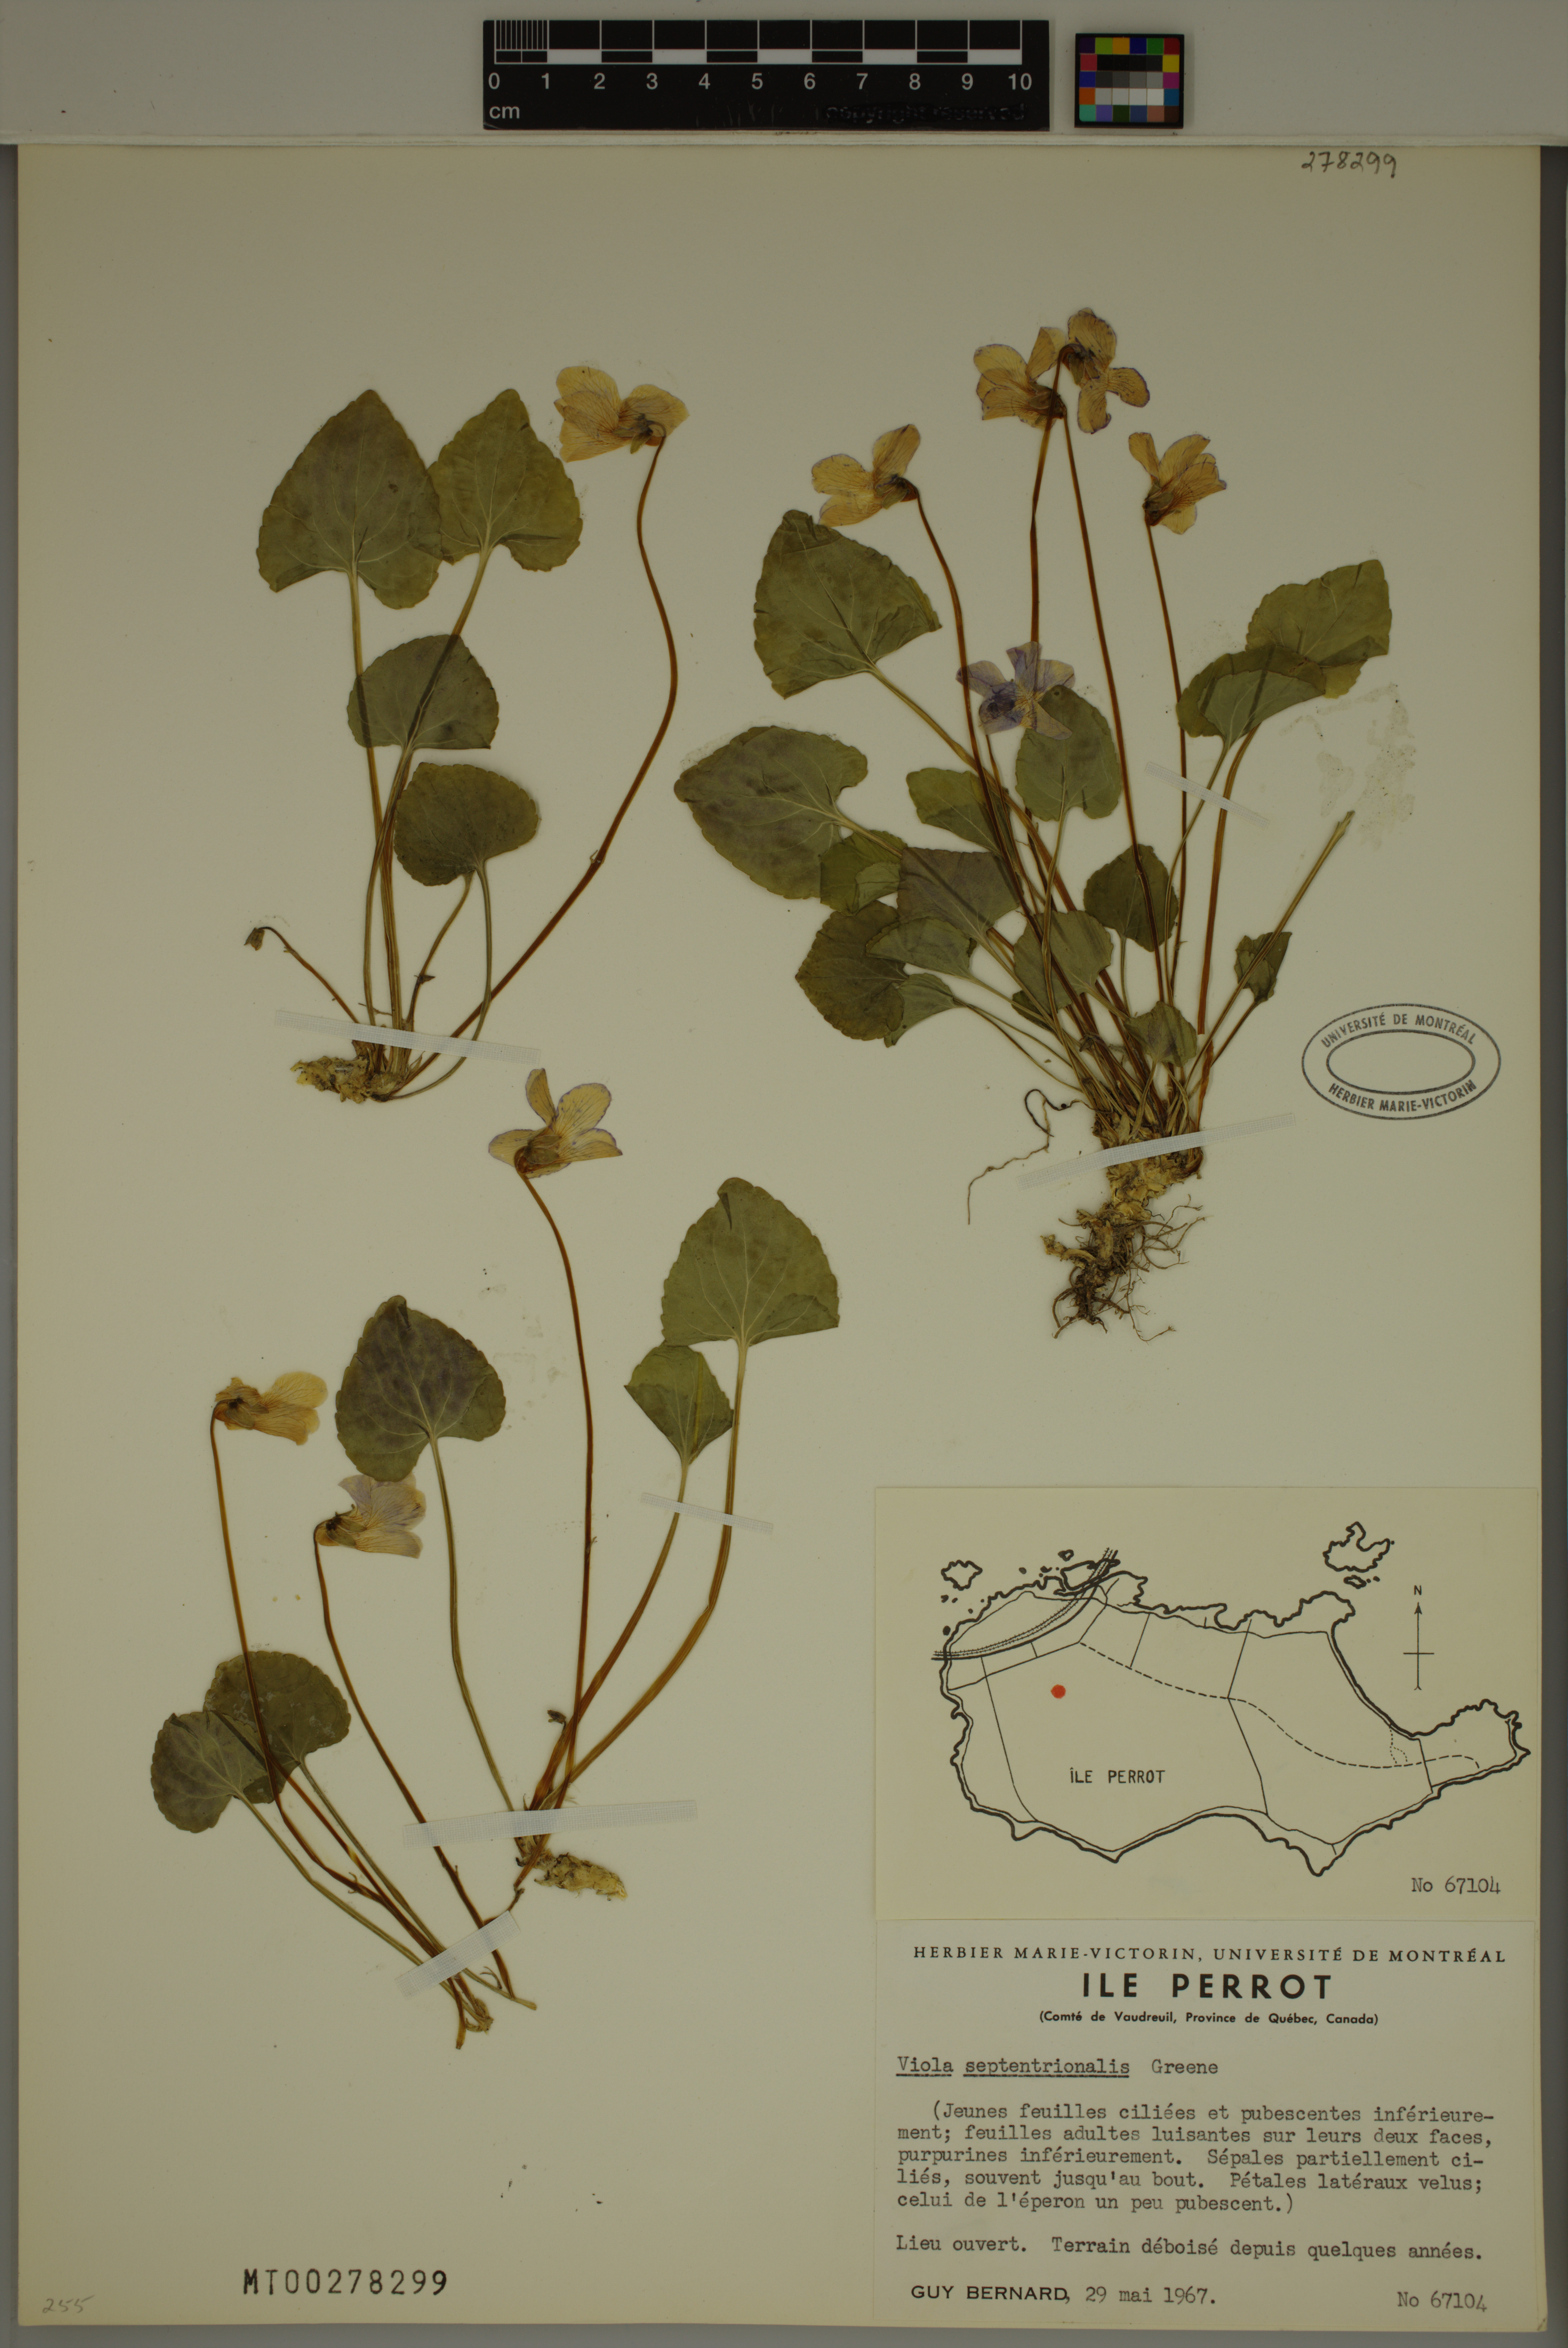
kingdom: Plantae
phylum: Tracheophyta
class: Magnoliopsida
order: Malpighiales
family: Violaceae
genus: Viola
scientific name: Viola septentrionalis
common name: Northern woodland violet
